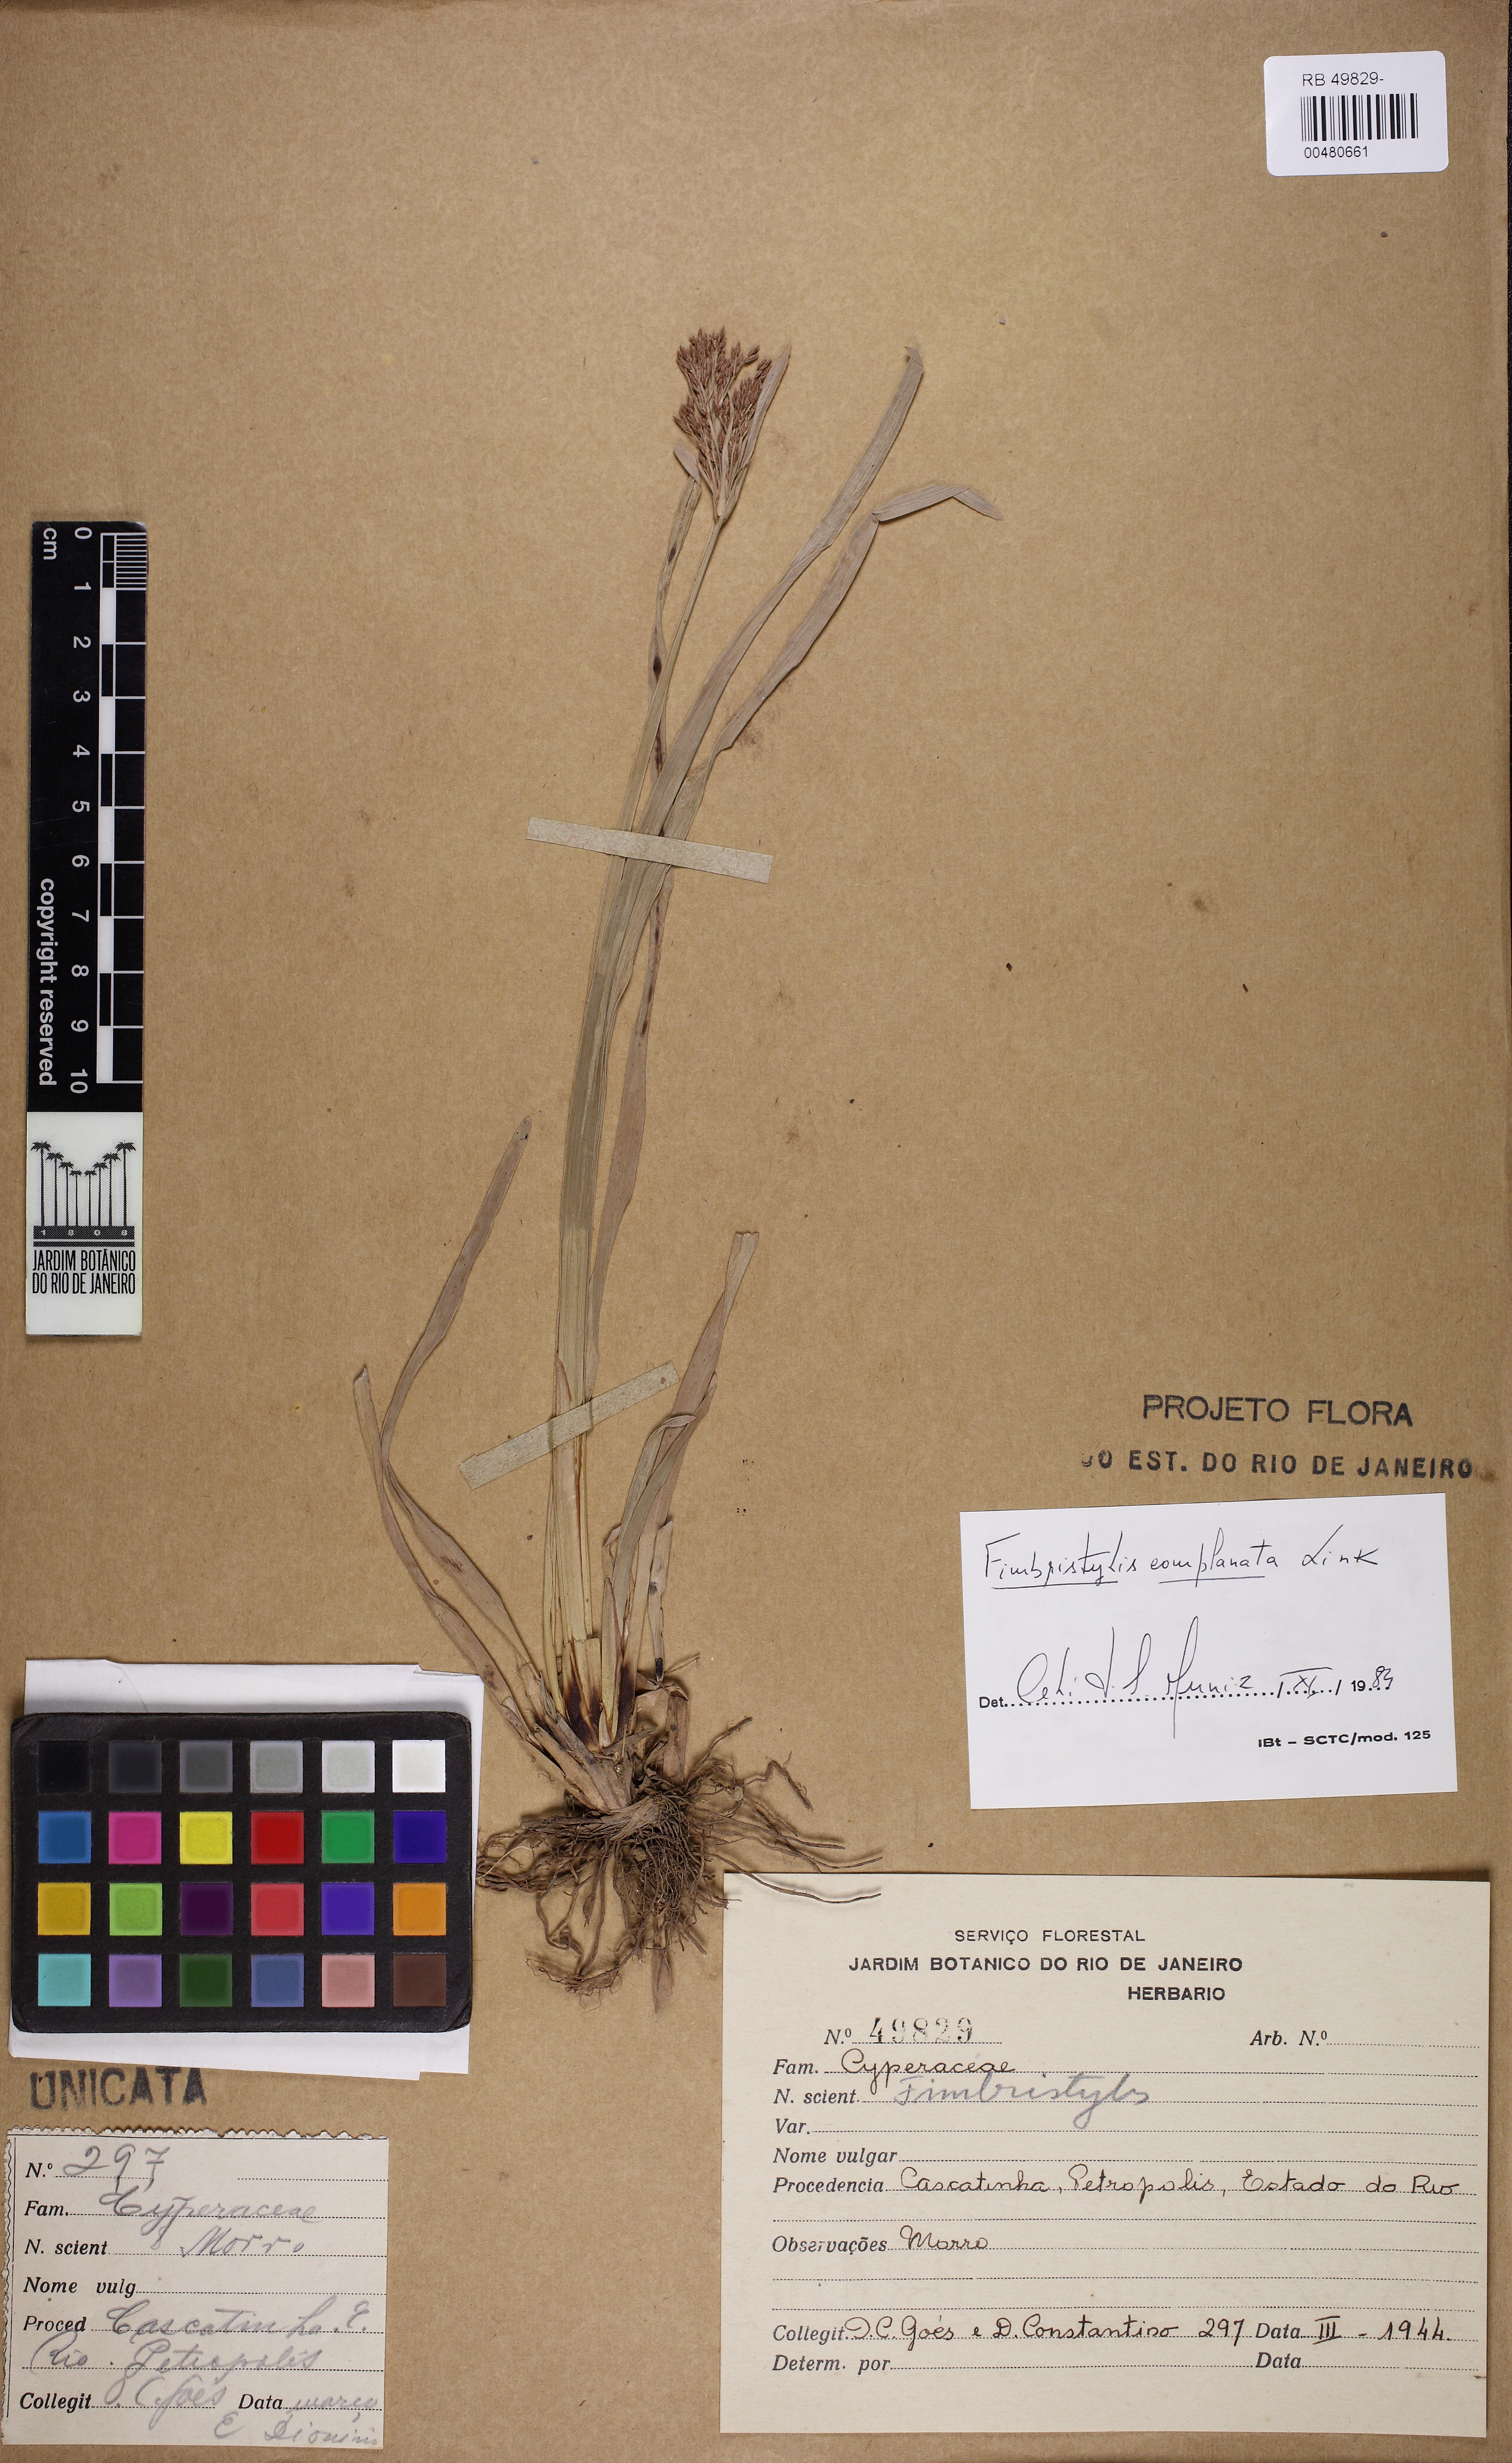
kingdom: Plantae
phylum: Tracheophyta
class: Liliopsida
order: Poales
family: Cyperaceae
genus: Fimbristylis
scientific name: Fimbristylis complanata
